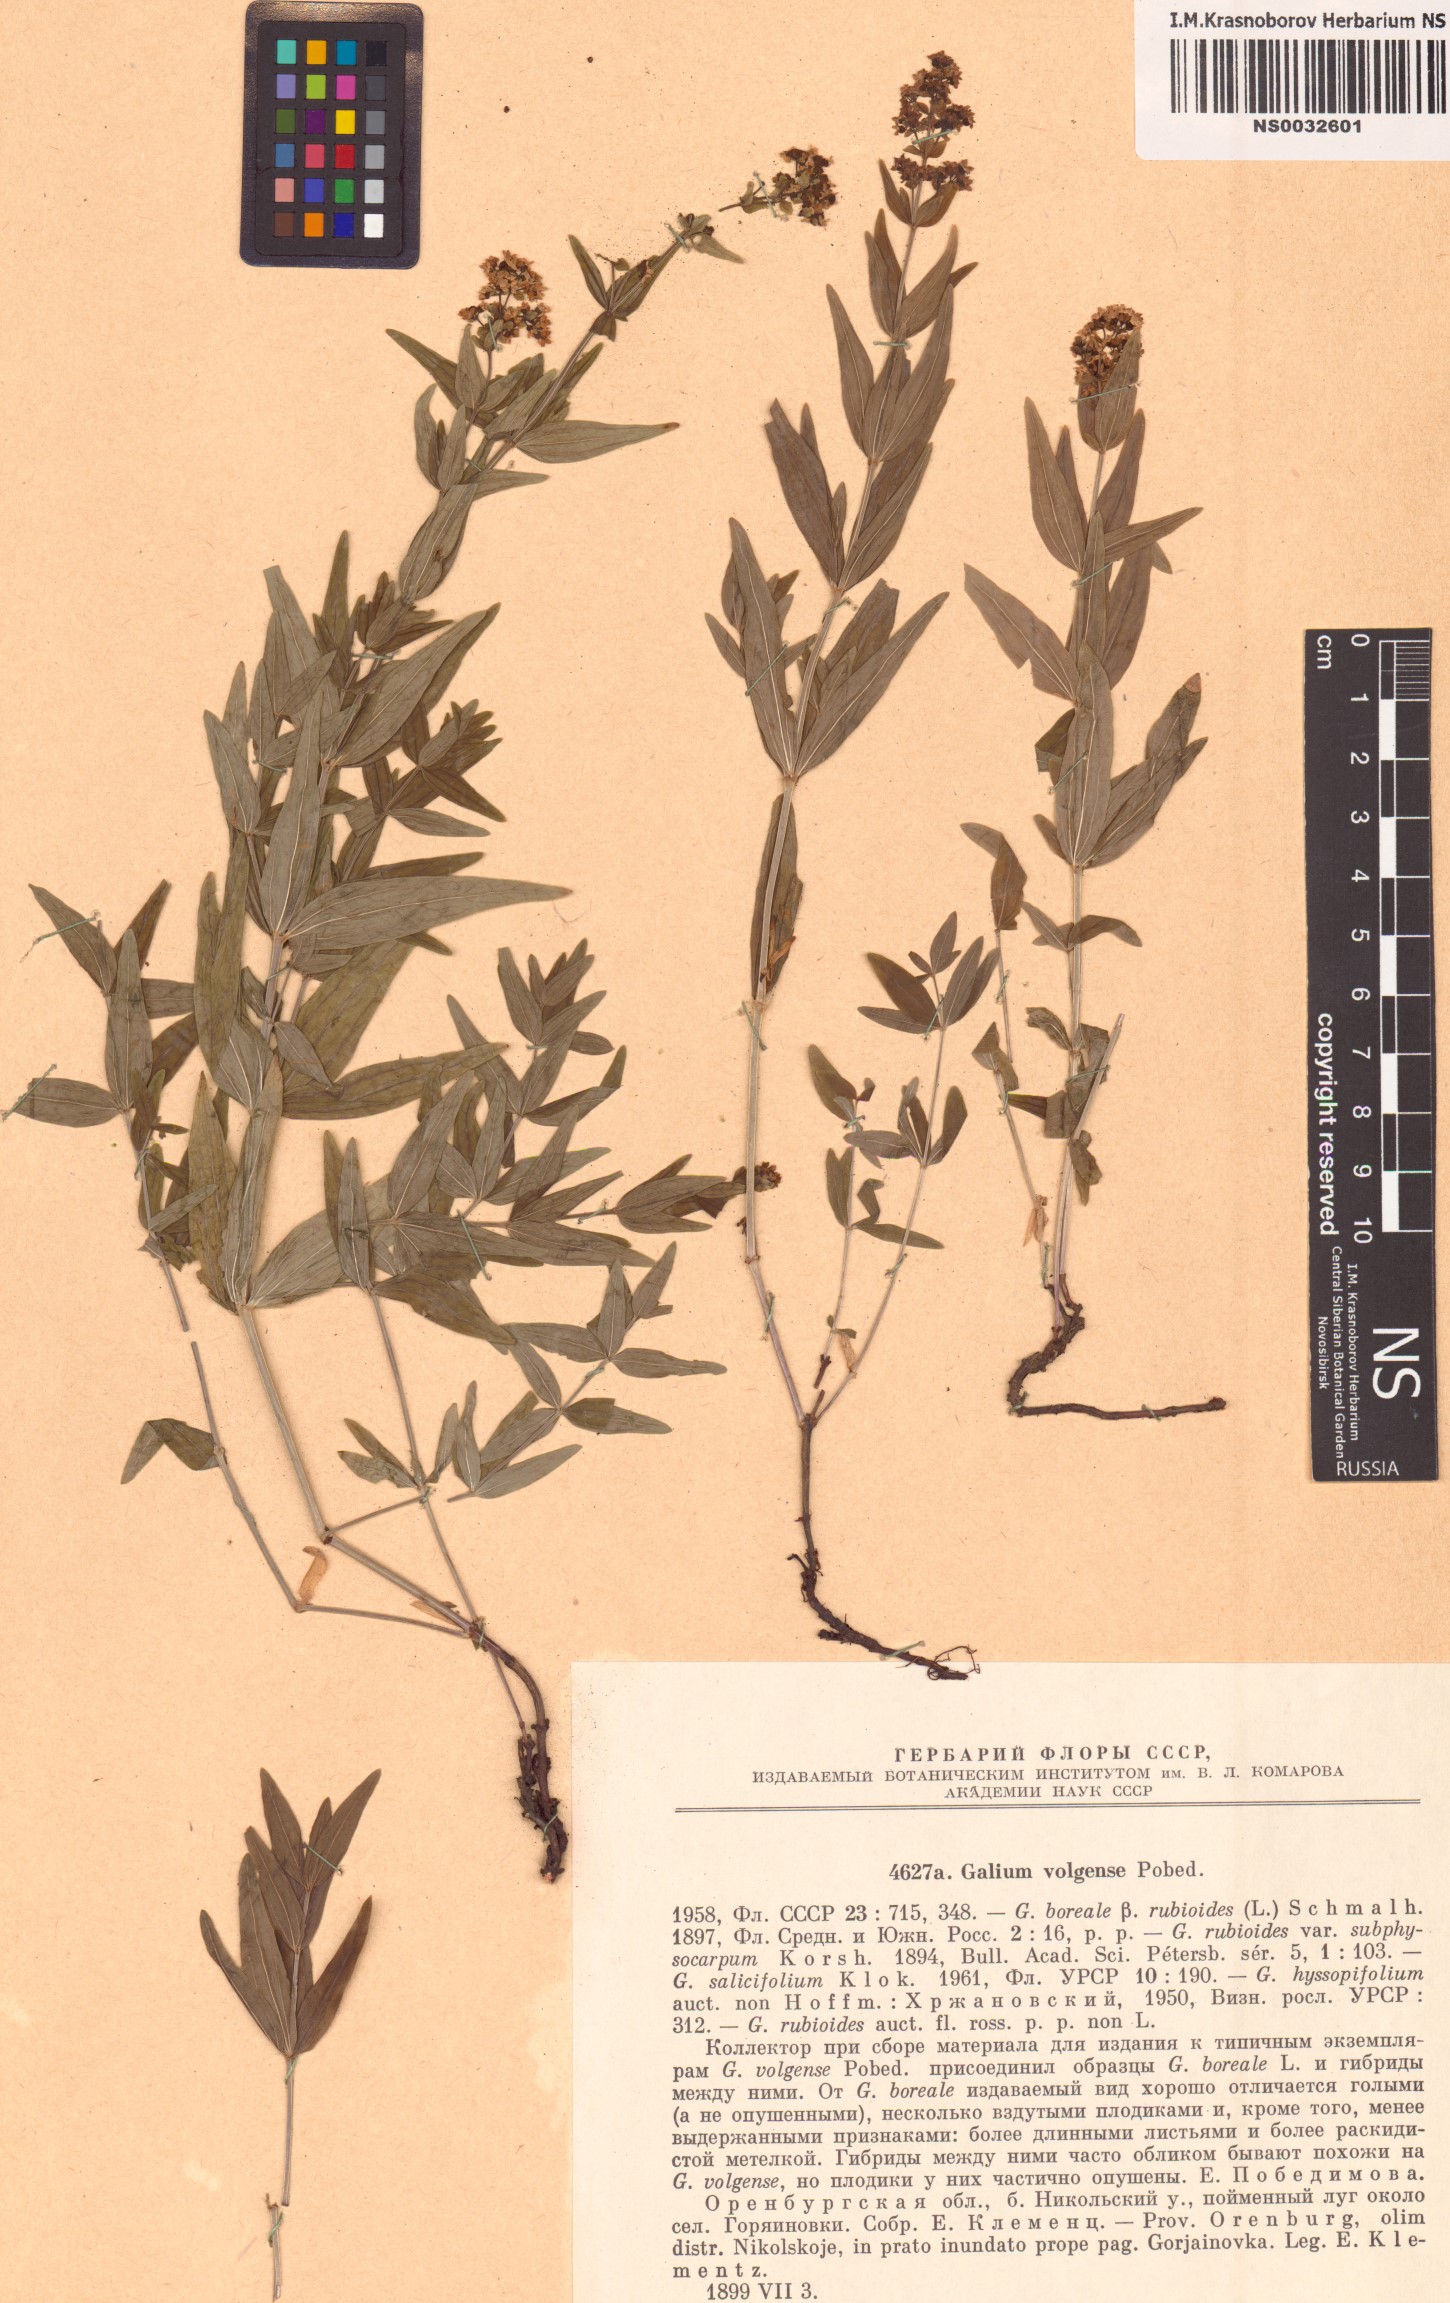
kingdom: Plantae
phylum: Tracheophyta
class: Magnoliopsida
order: Gentianales
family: Rubiaceae
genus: Galium
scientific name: Galium rubioides
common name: European bedstraw
